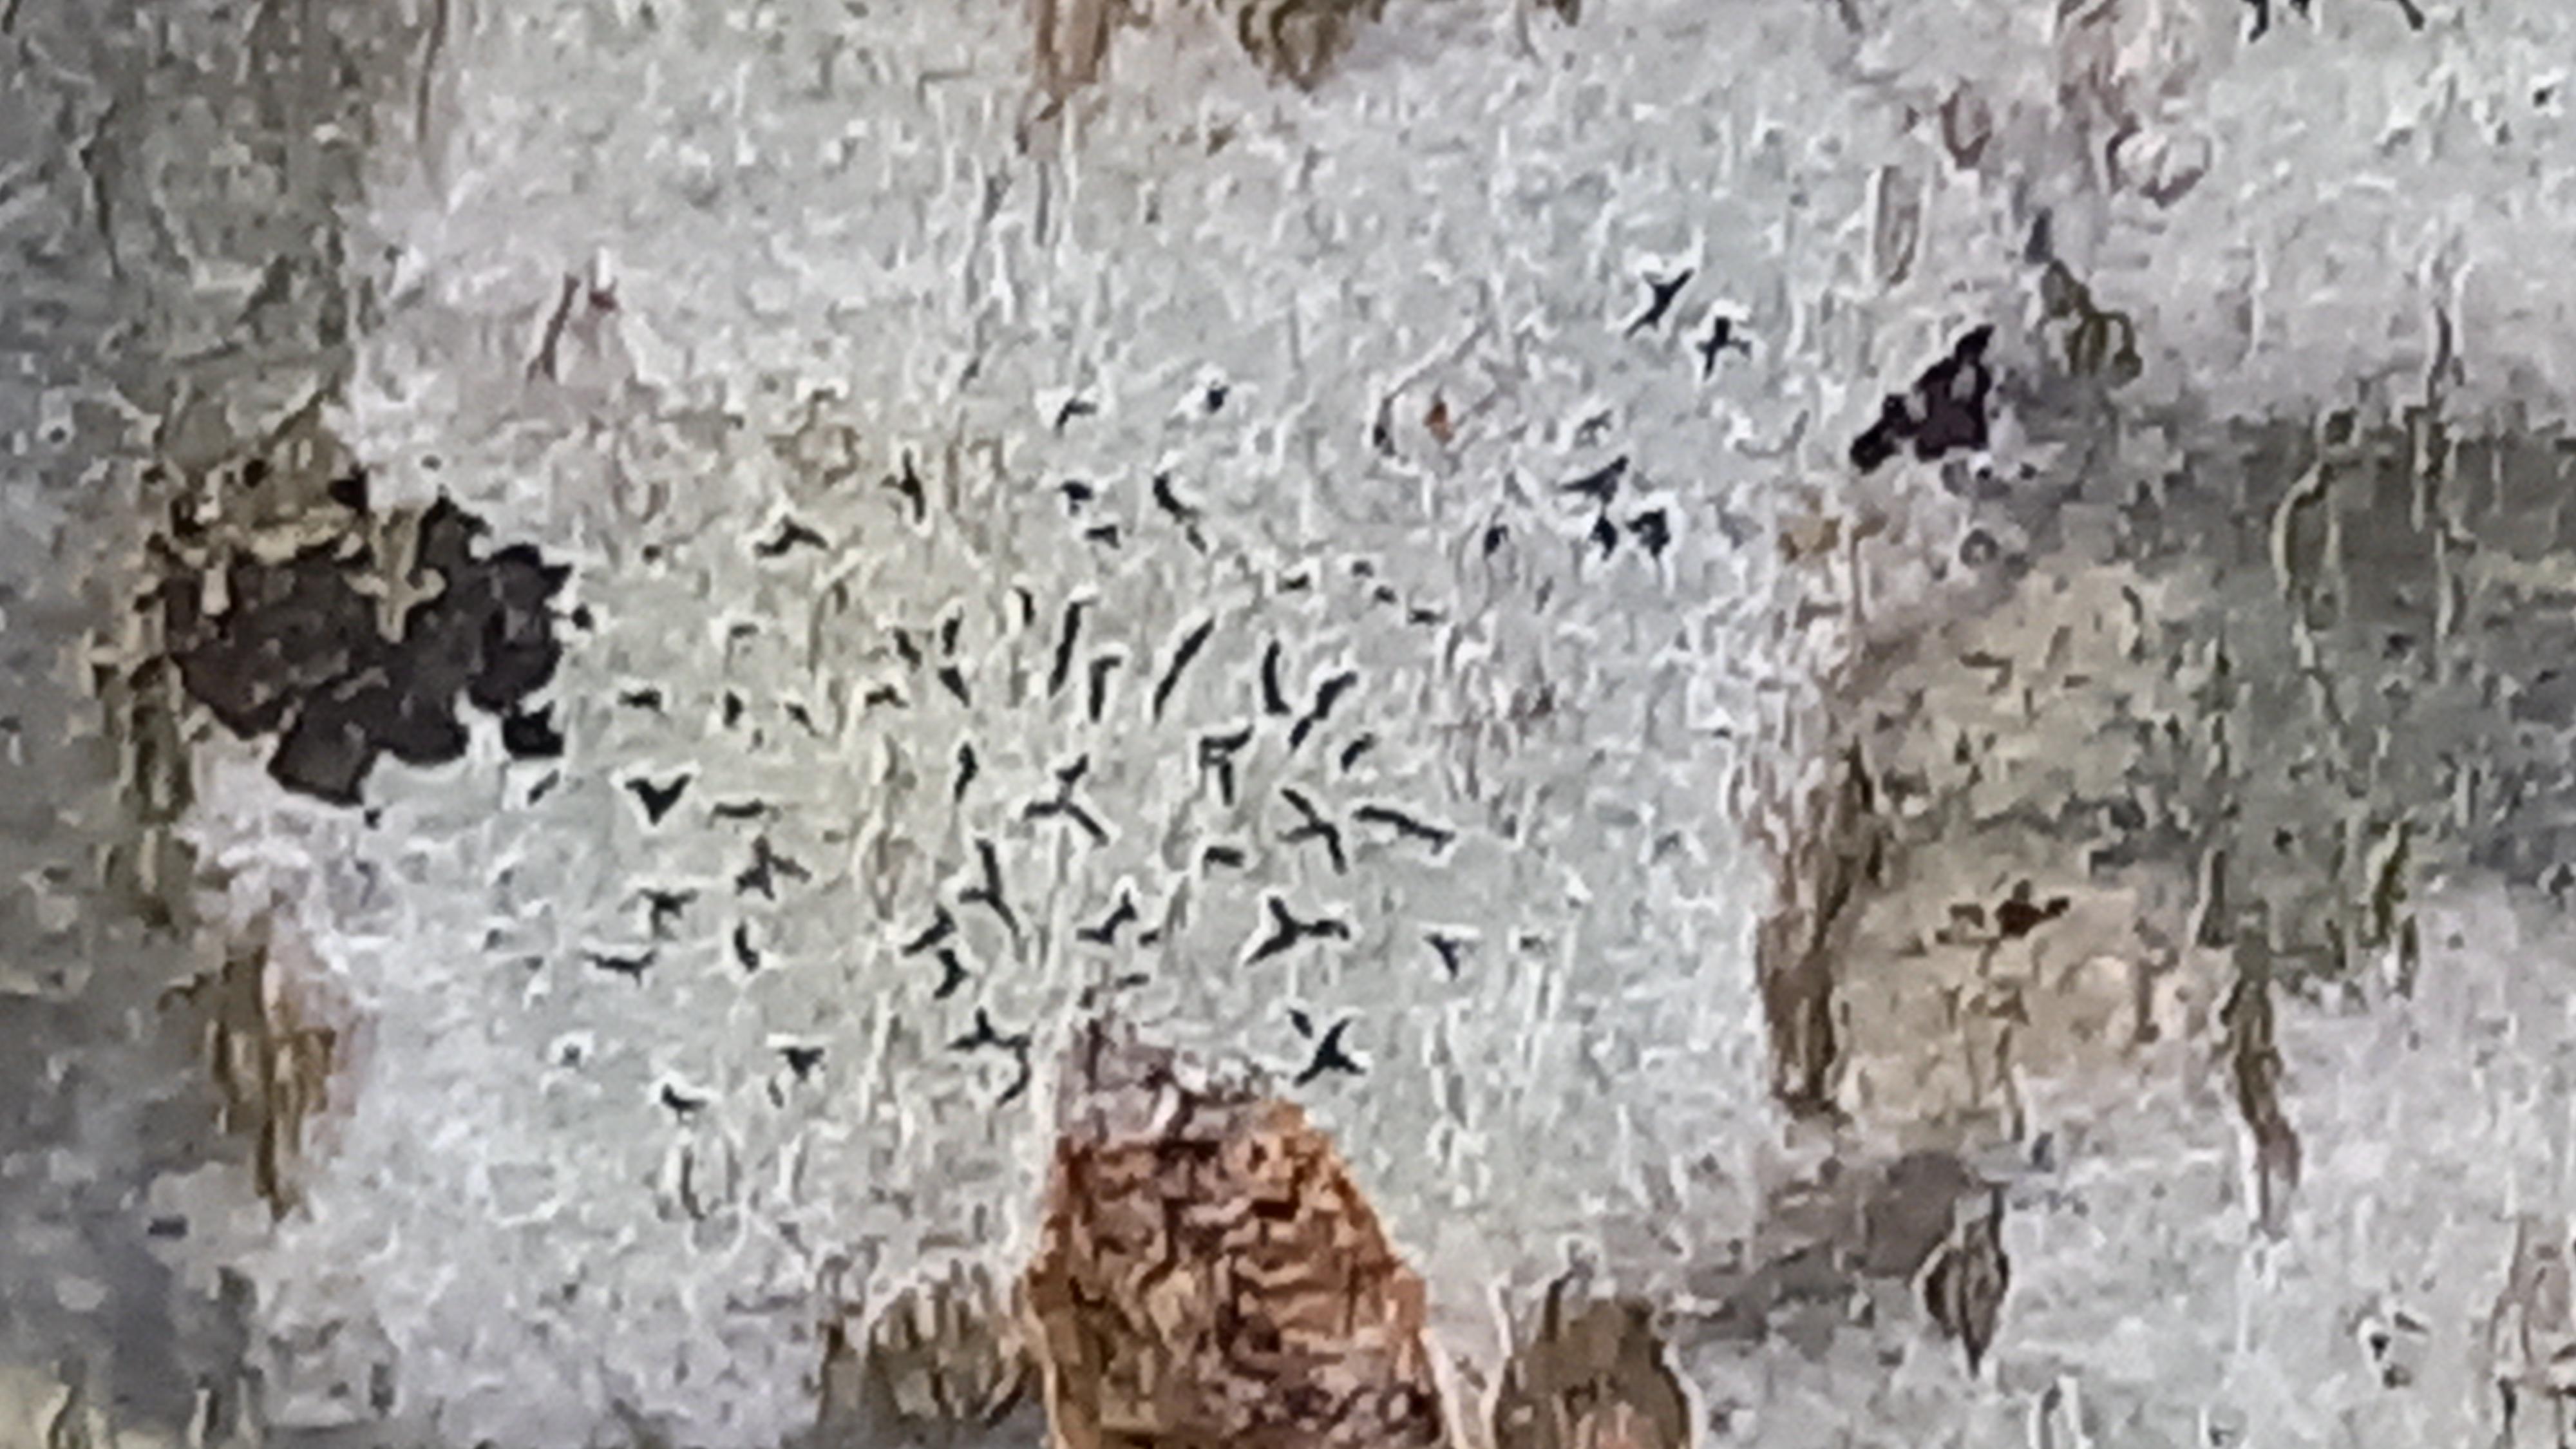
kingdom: Fungi
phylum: Ascomycota
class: Lecanoromycetes
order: Ostropales
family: Graphidaceae
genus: Graphis
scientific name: Graphis scripta
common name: almindelig skriftlav
